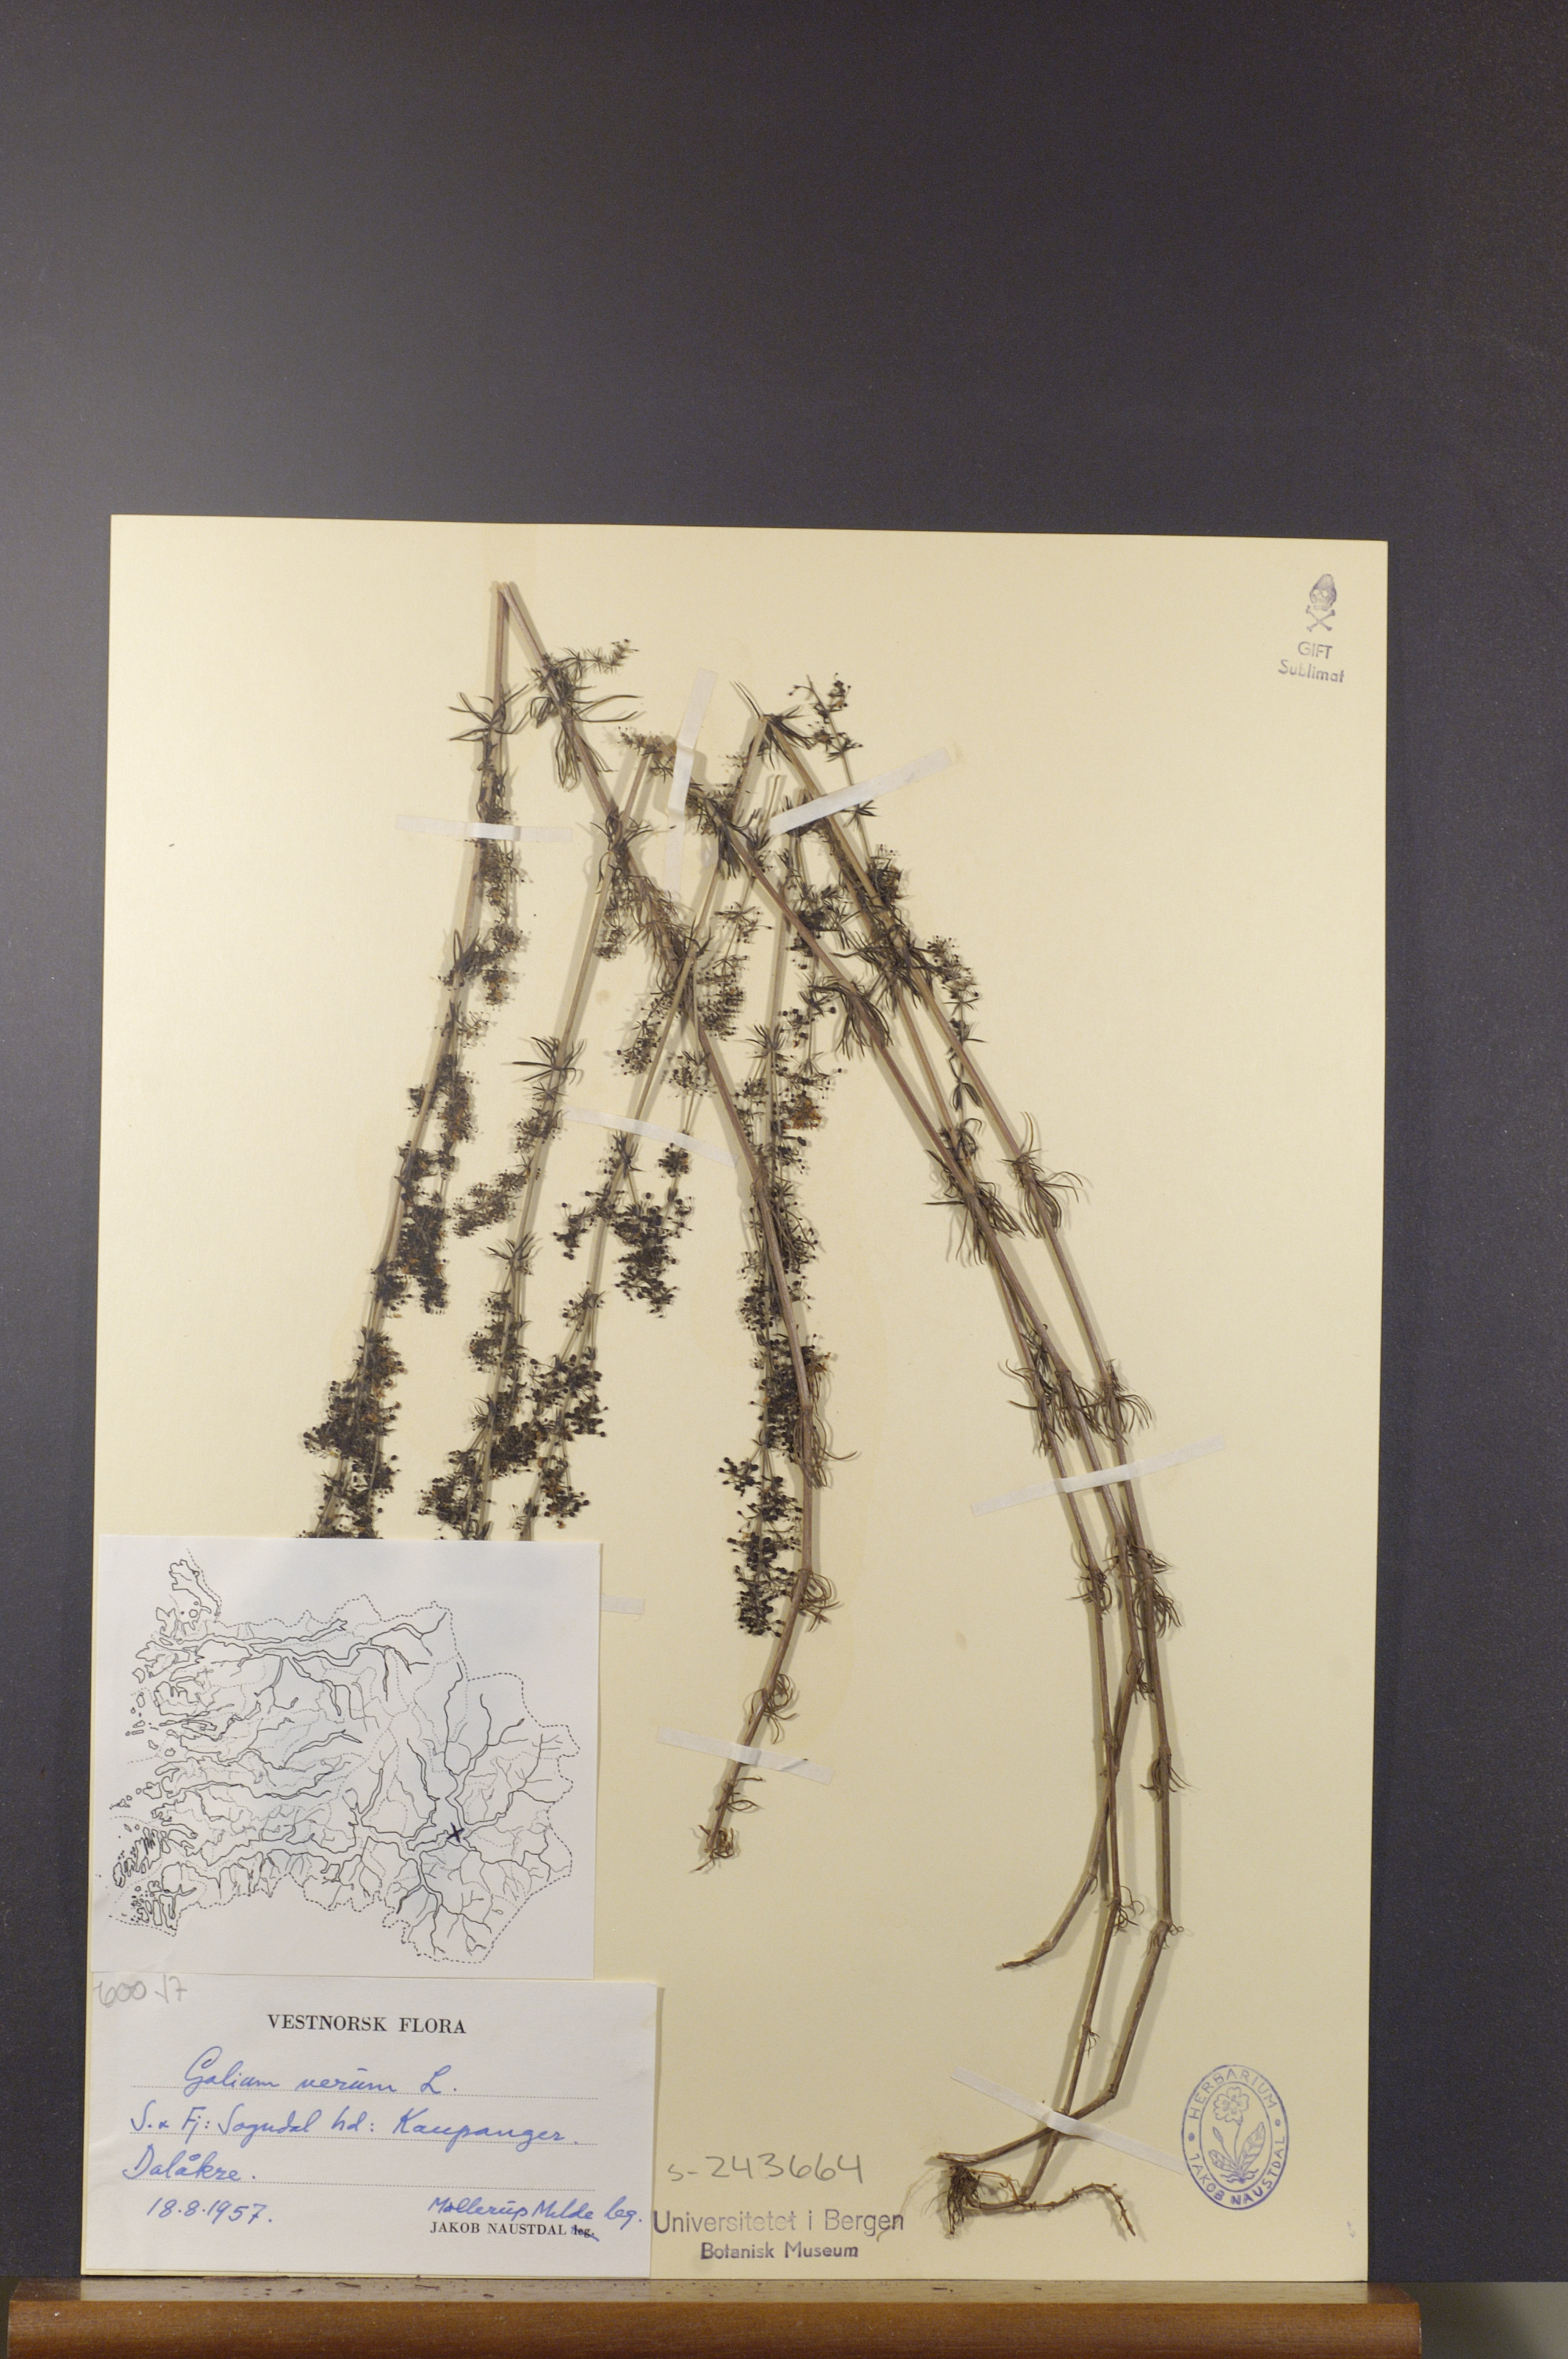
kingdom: Plantae
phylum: Tracheophyta
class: Magnoliopsida
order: Gentianales
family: Rubiaceae
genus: Galium
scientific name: Galium verum
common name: Lady's bedstraw
